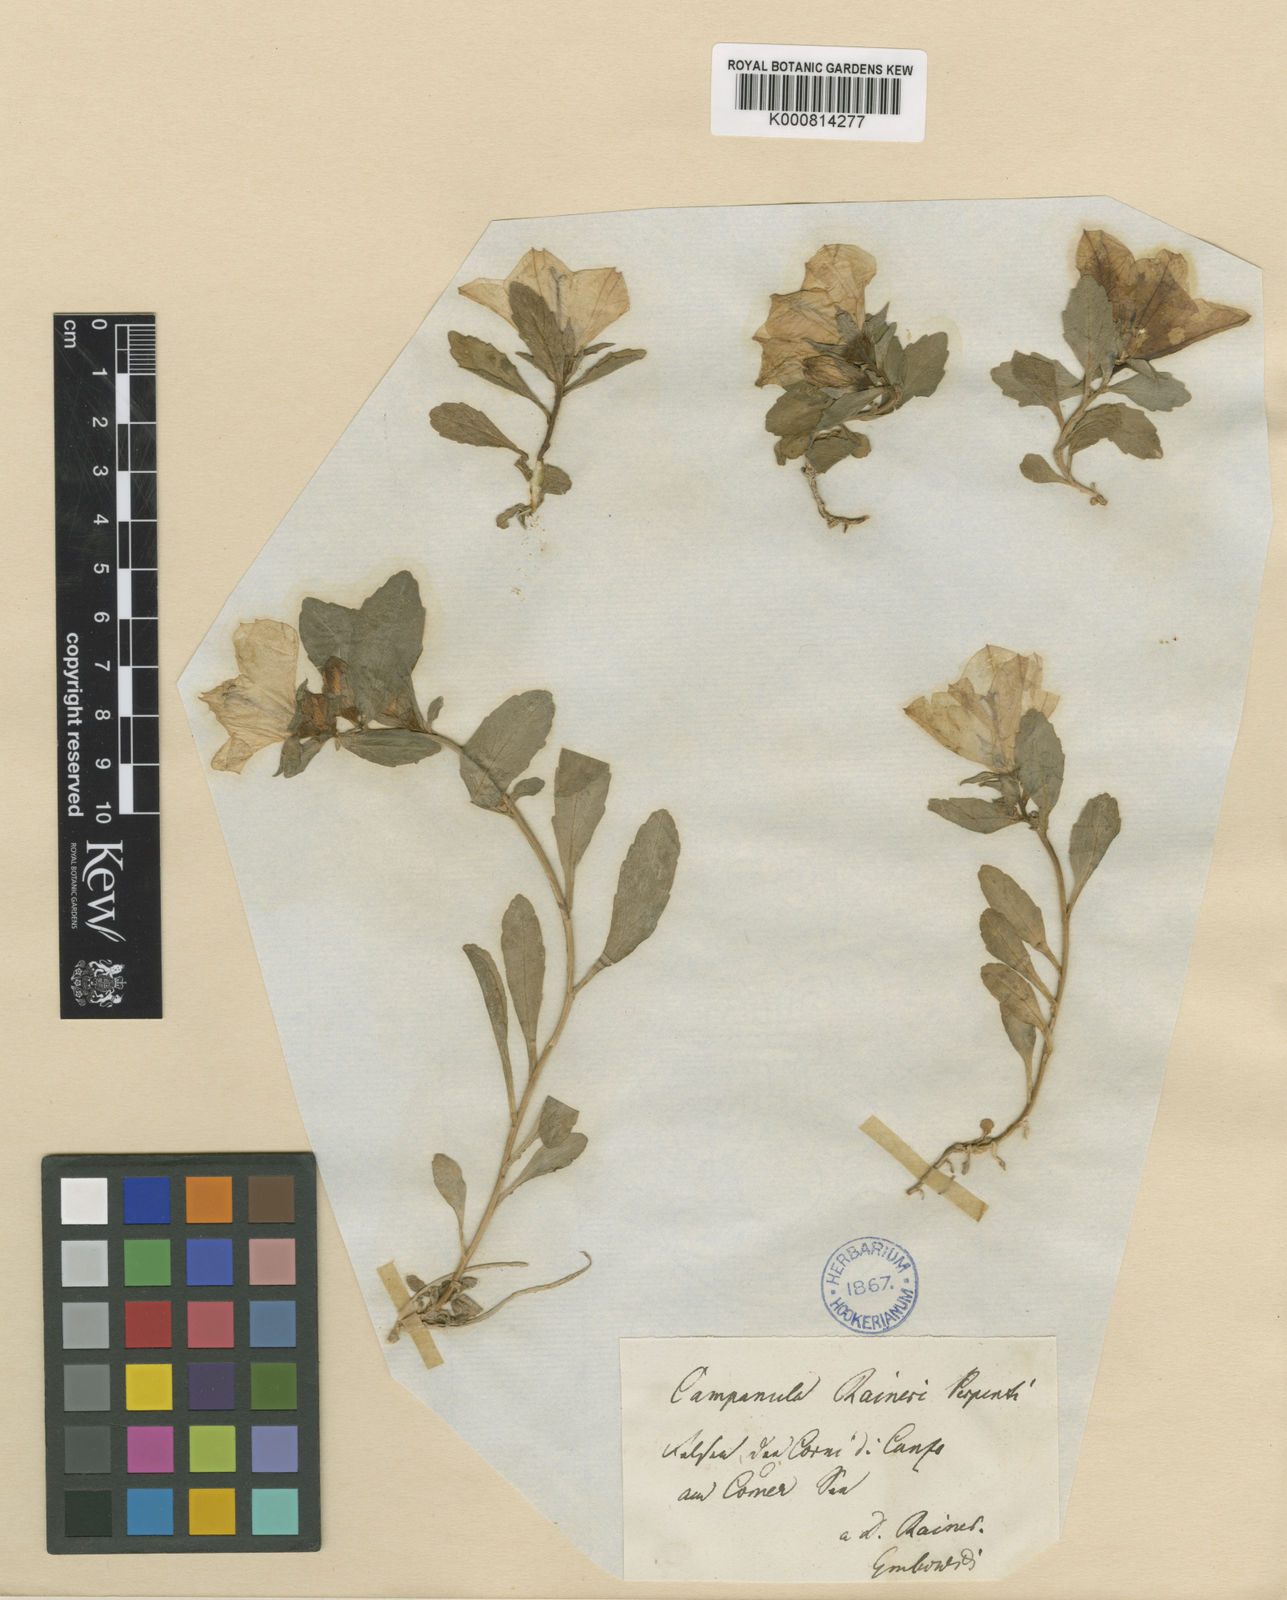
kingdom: Plantae
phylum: Tracheophyta
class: Magnoliopsida
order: Asterales
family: Campanulaceae
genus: Campanula
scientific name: Campanula raineri
